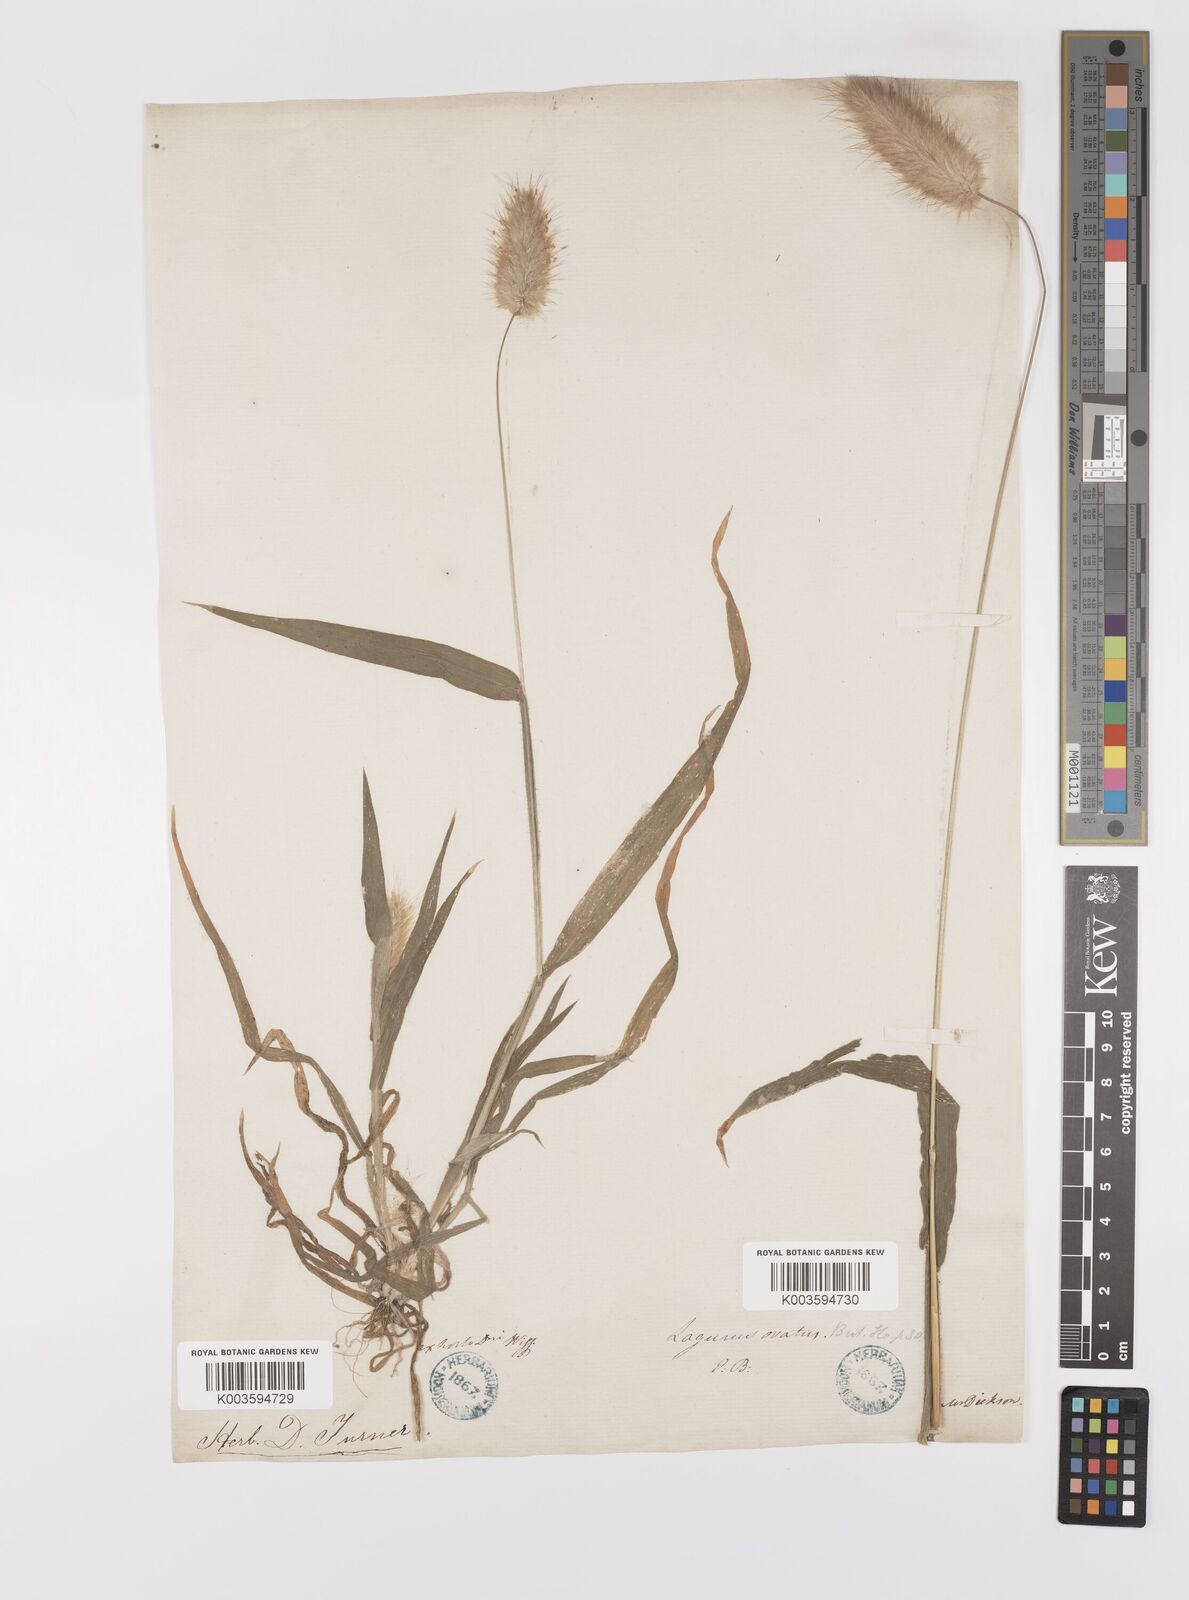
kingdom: Plantae
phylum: Tracheophyta
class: Liliopsida
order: Poales
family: Poaceae
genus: Lagurus
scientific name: Lagurus ovatus
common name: Hare's-tail
